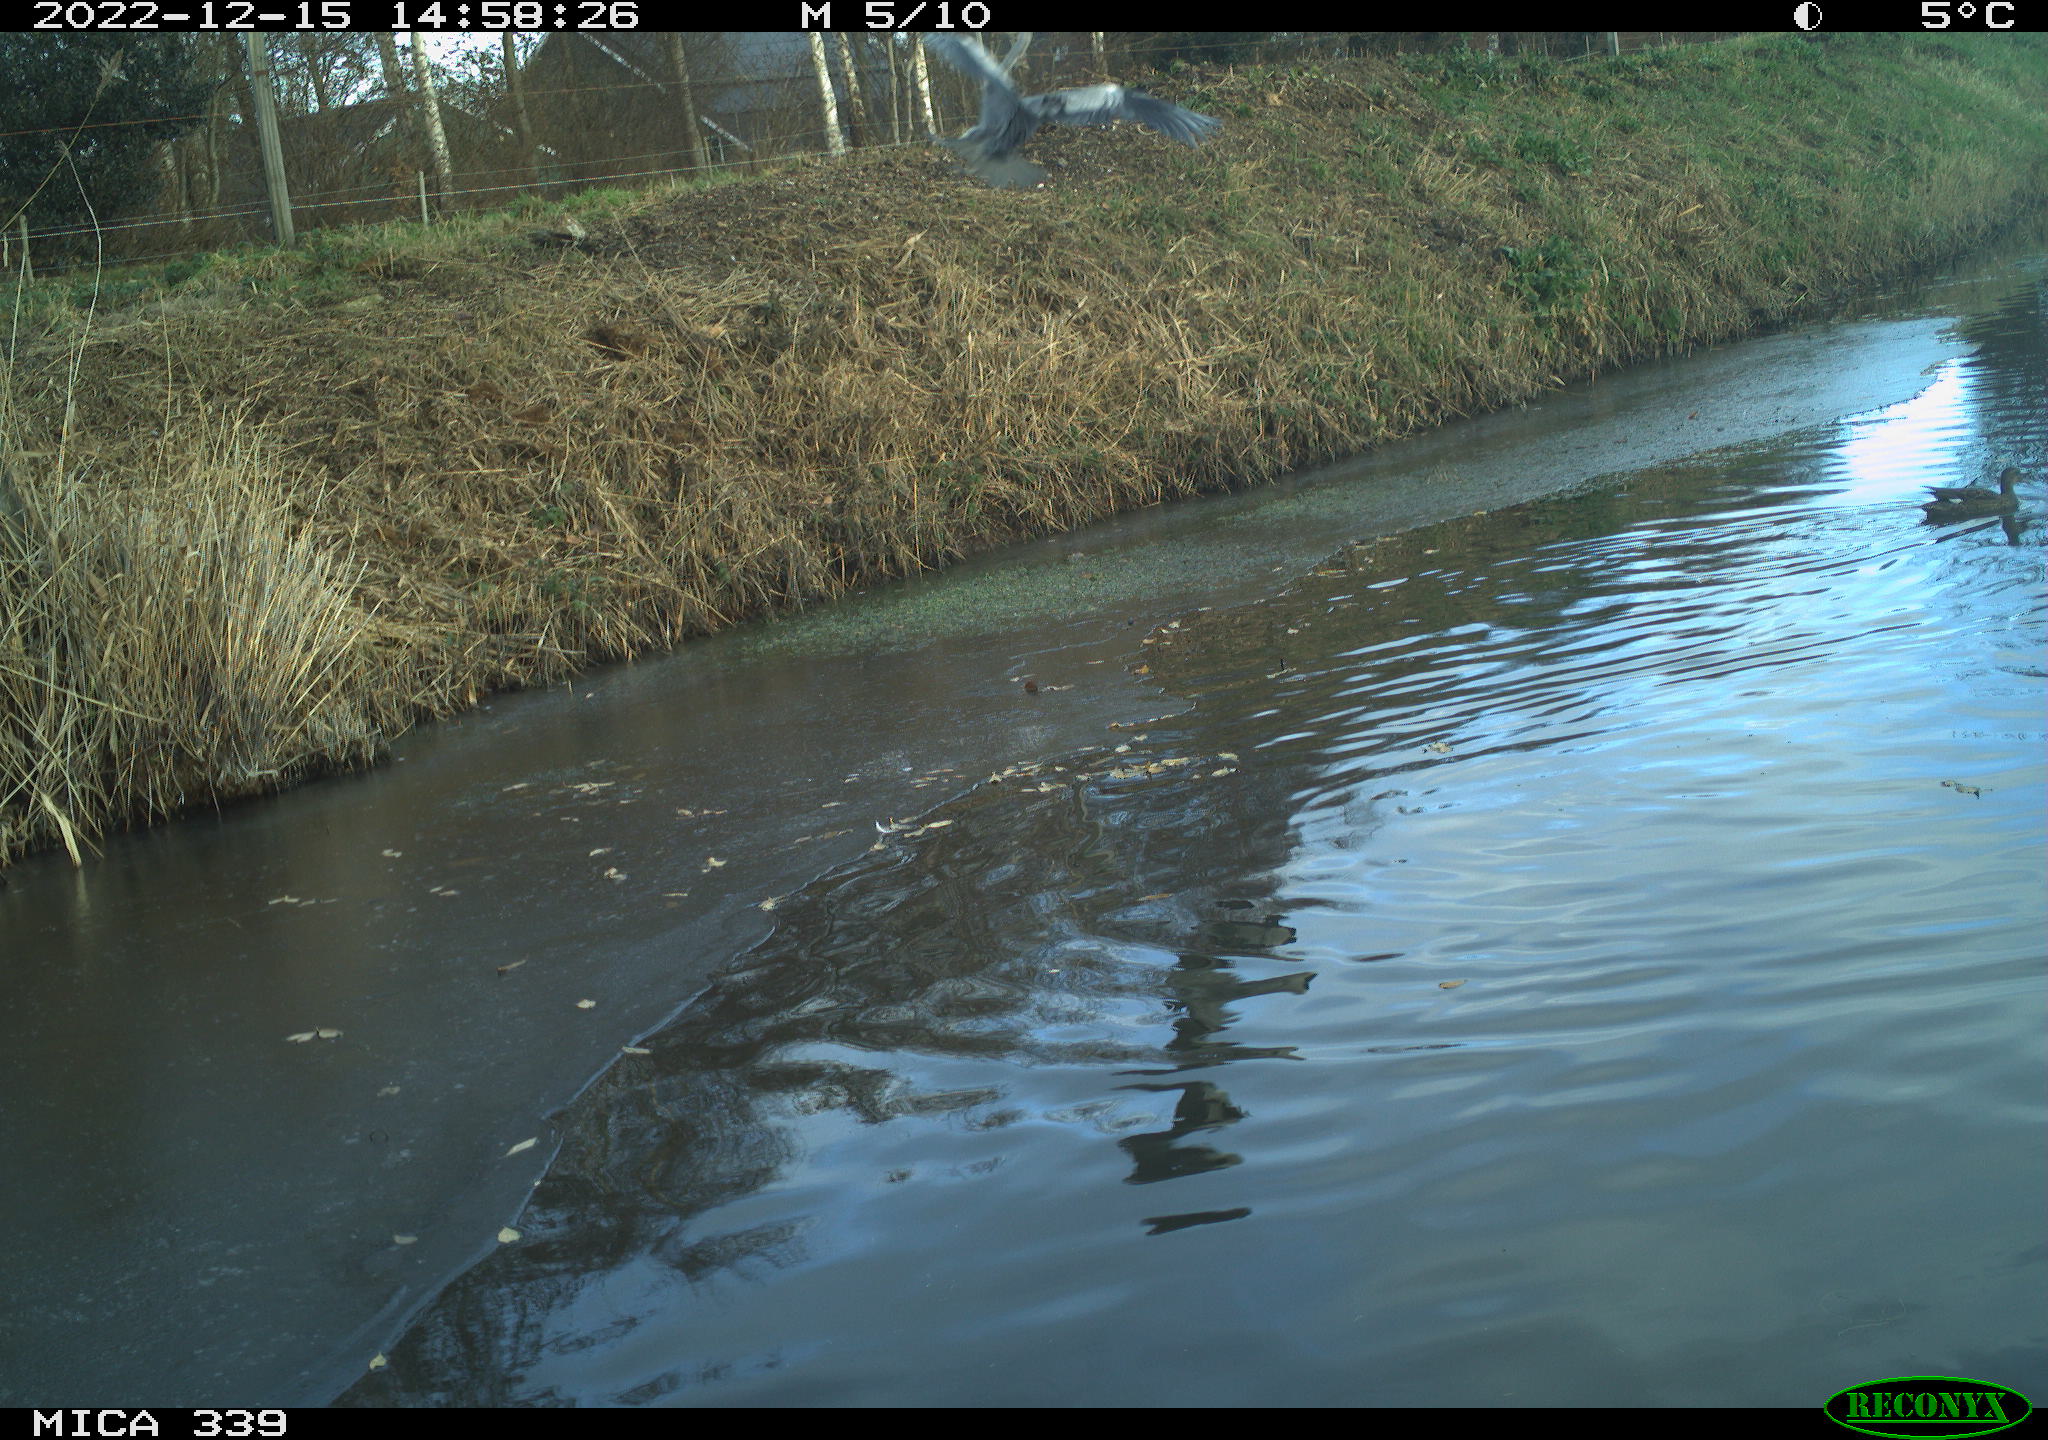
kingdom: Animalia
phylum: Chordata
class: Aves
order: Anseriformes
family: Anatidae
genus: Anas
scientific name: Anas
